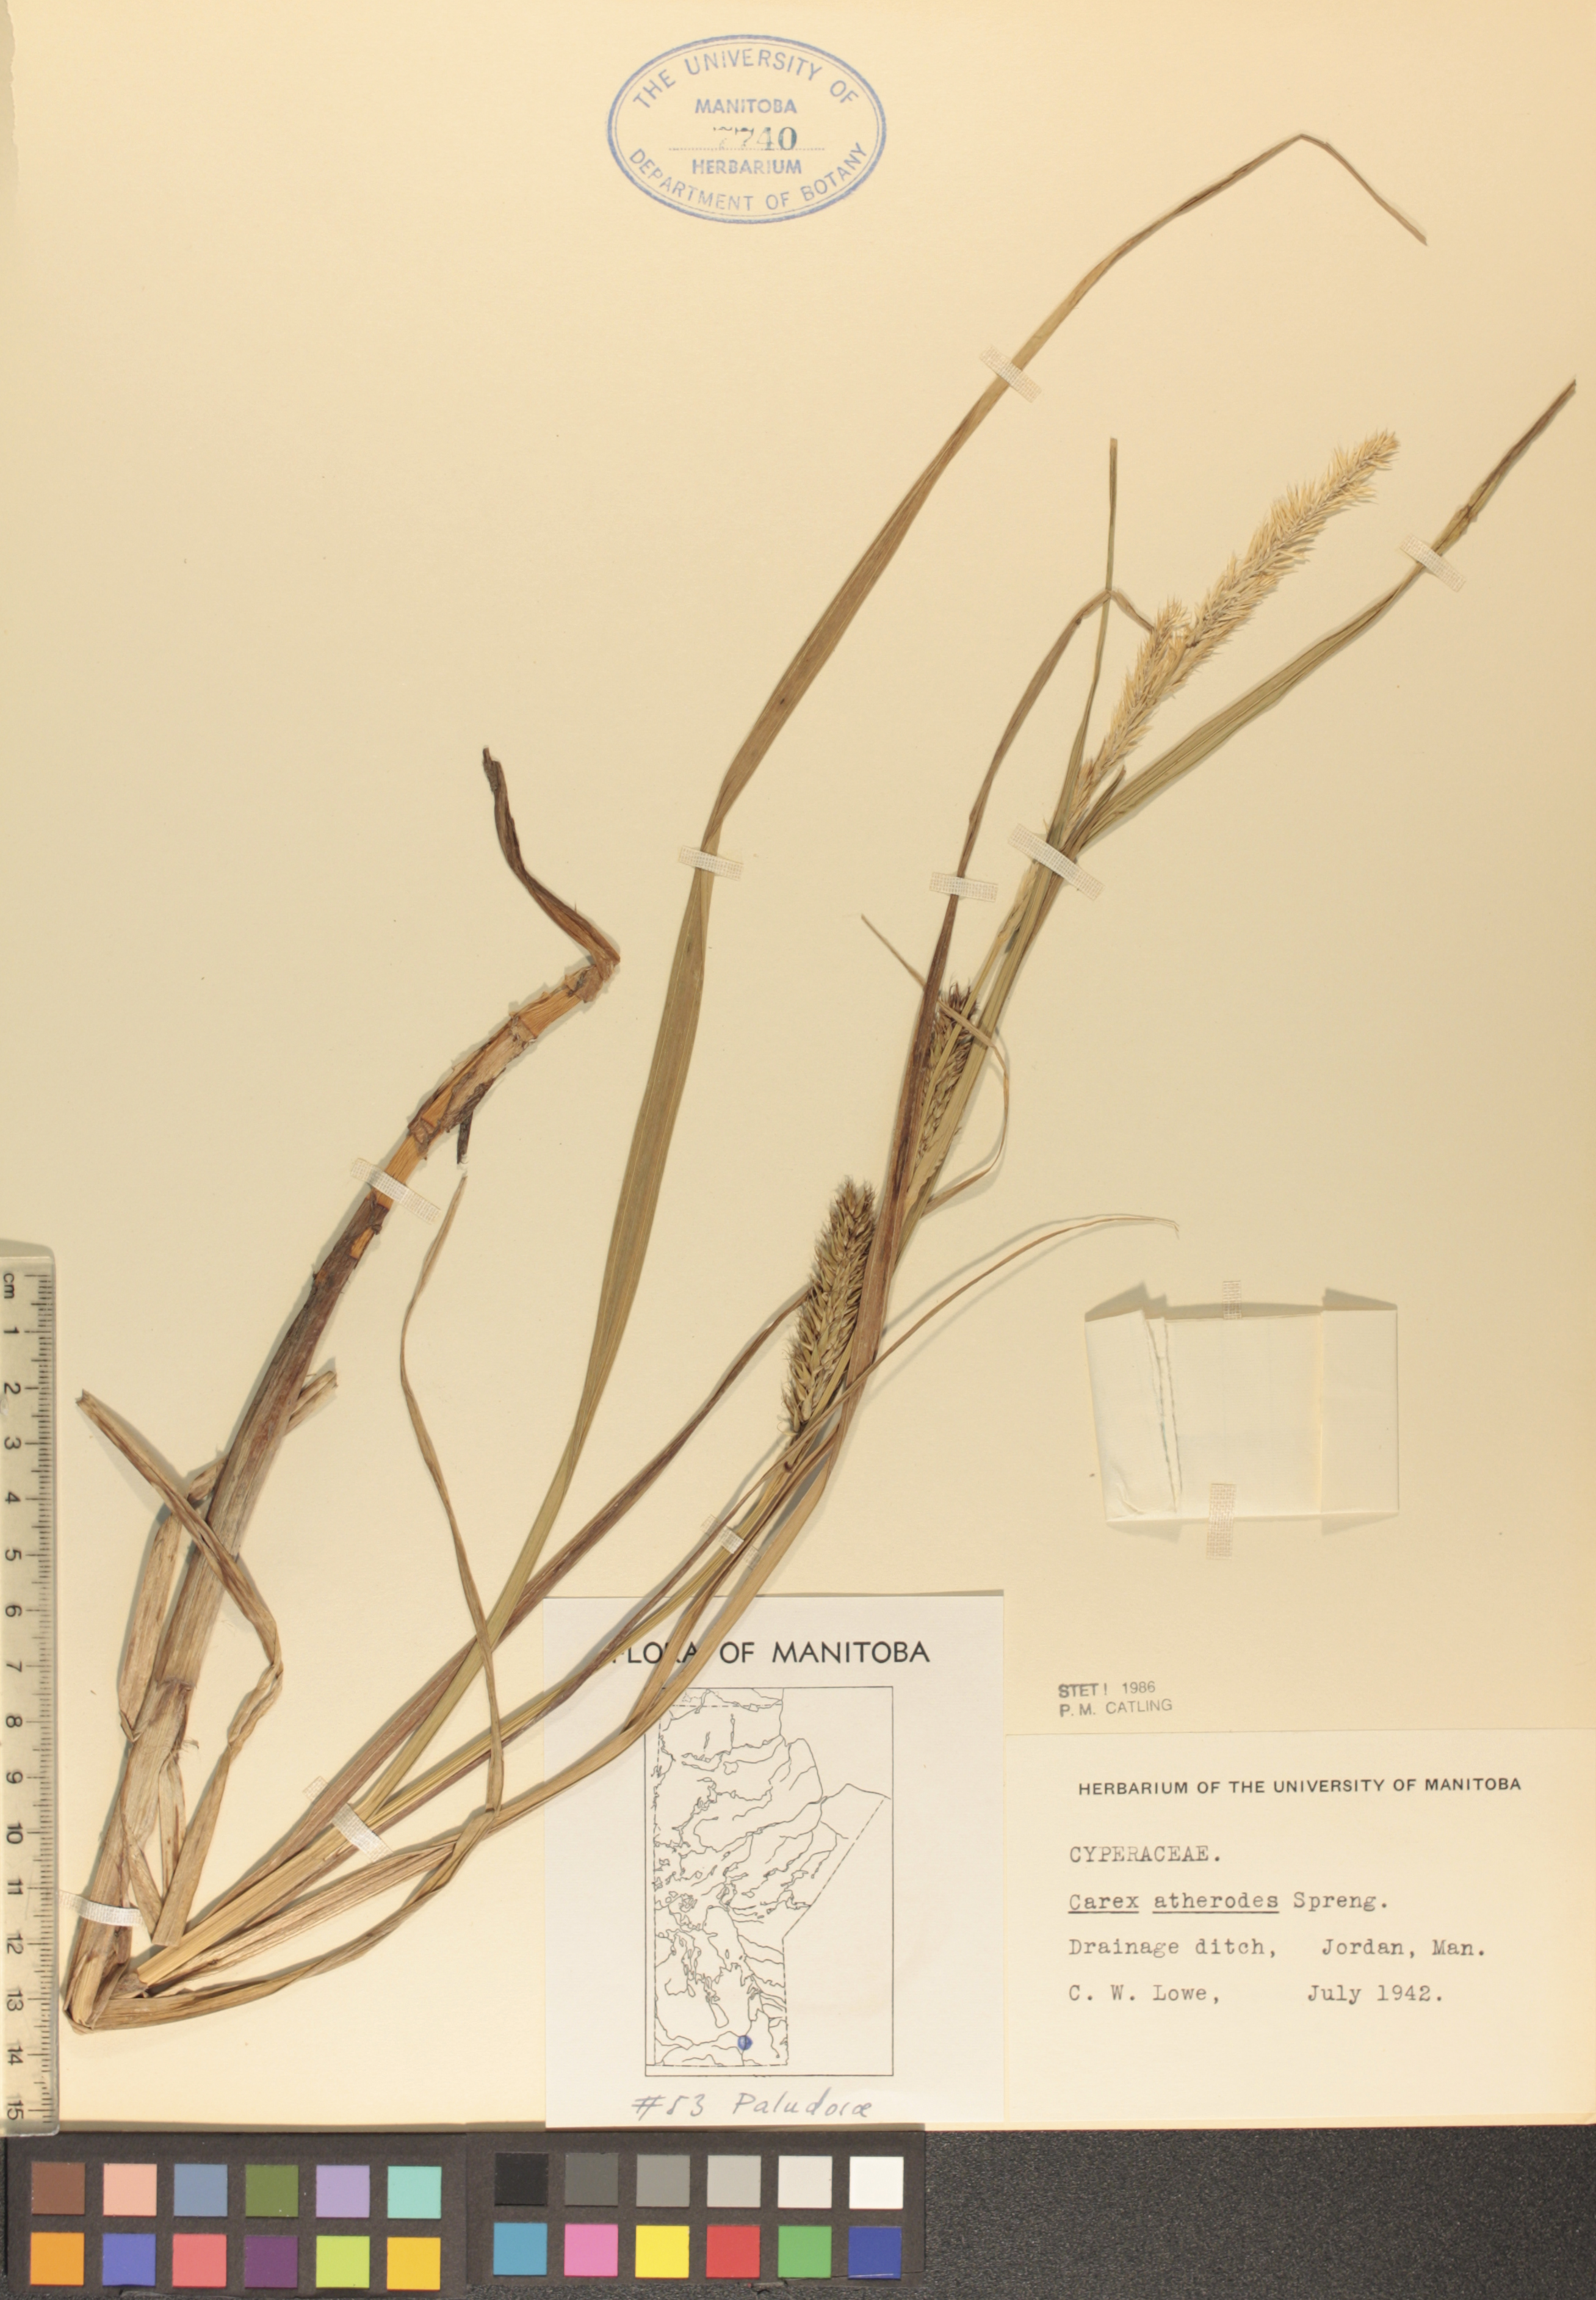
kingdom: Plantae
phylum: Tracheophyta
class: Liliopsida
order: Poales
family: Cyperaceae
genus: Carex
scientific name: Carex atherodes
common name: Wheat sedge
